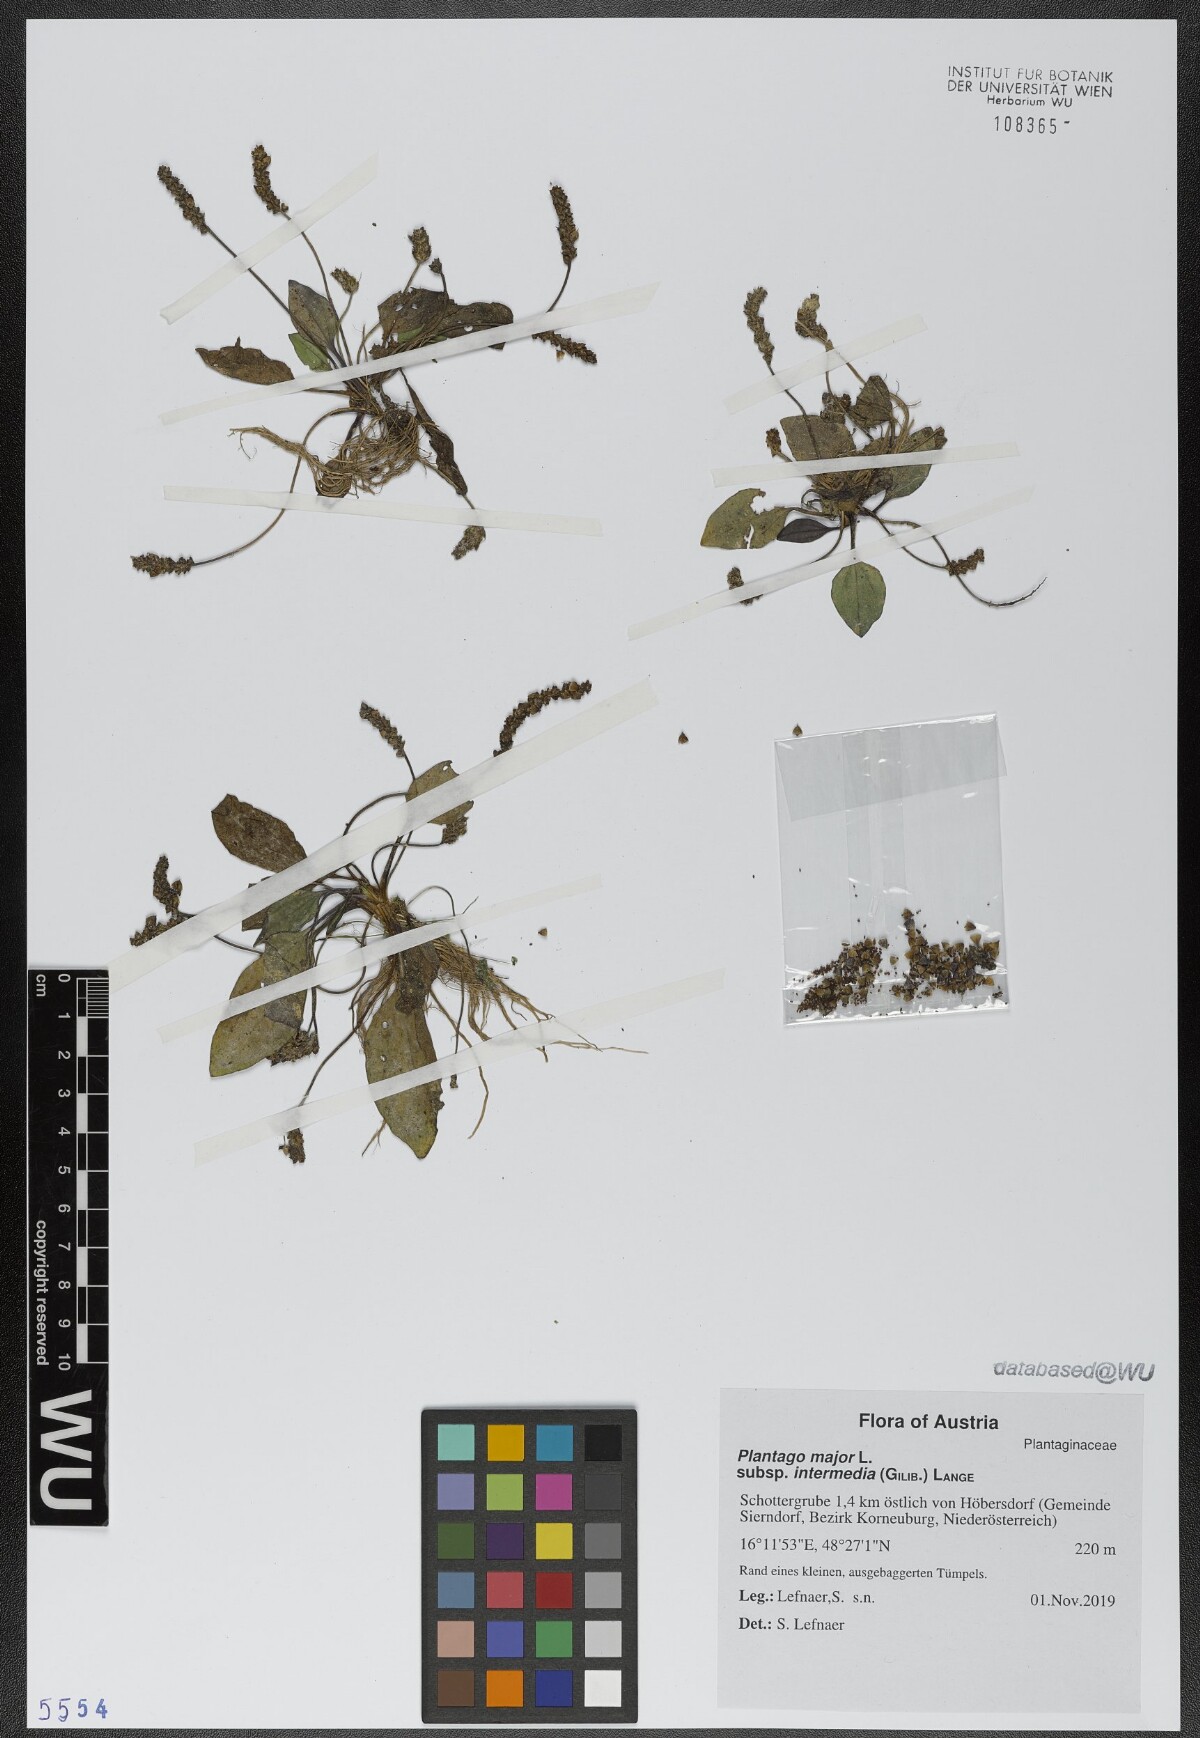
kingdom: Plantae
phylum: Tracheophyta
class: Magnoliopsida
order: Lamiales
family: Plantaginaceae
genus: Plantago
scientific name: Plantago uliginosa
